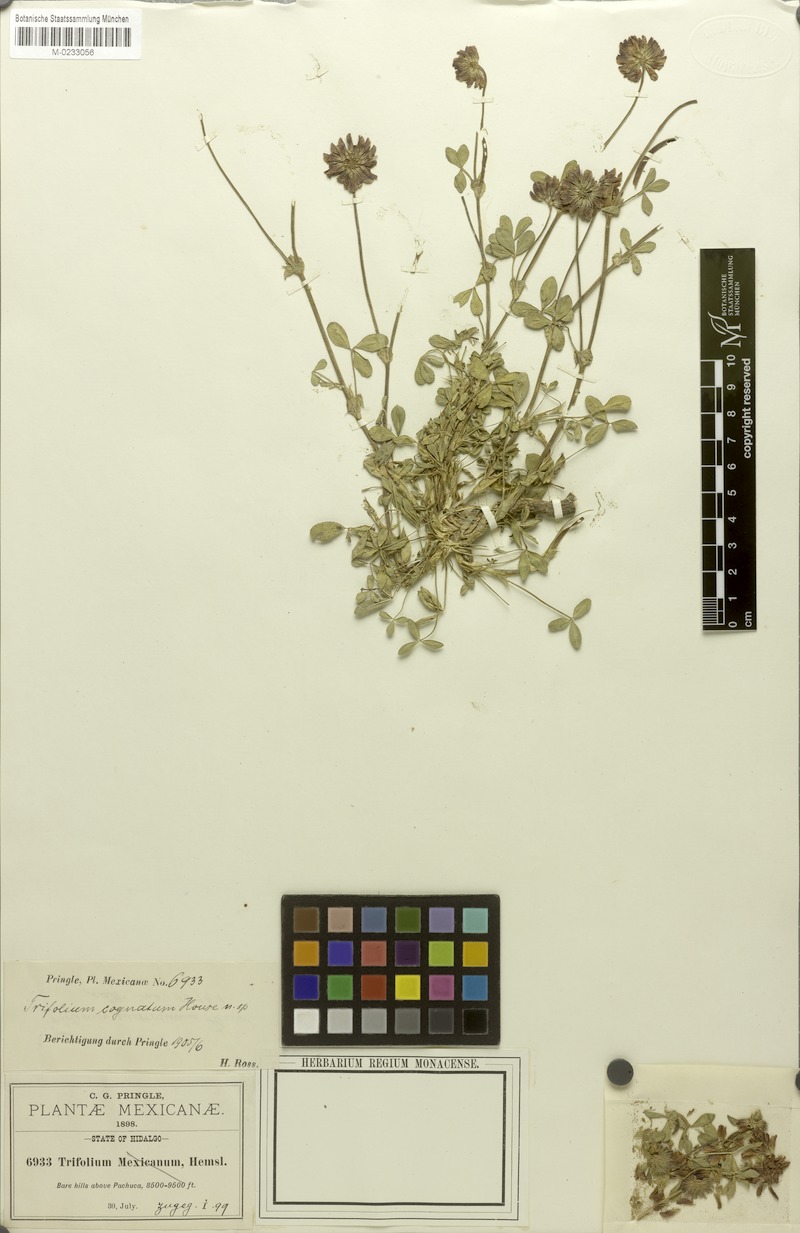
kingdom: Plantae
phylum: Tracheophyta
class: Magnoliopsida
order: Fabales
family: Fabaceae
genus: Trifolium
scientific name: Trifolium amabile
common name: Aztec clover
